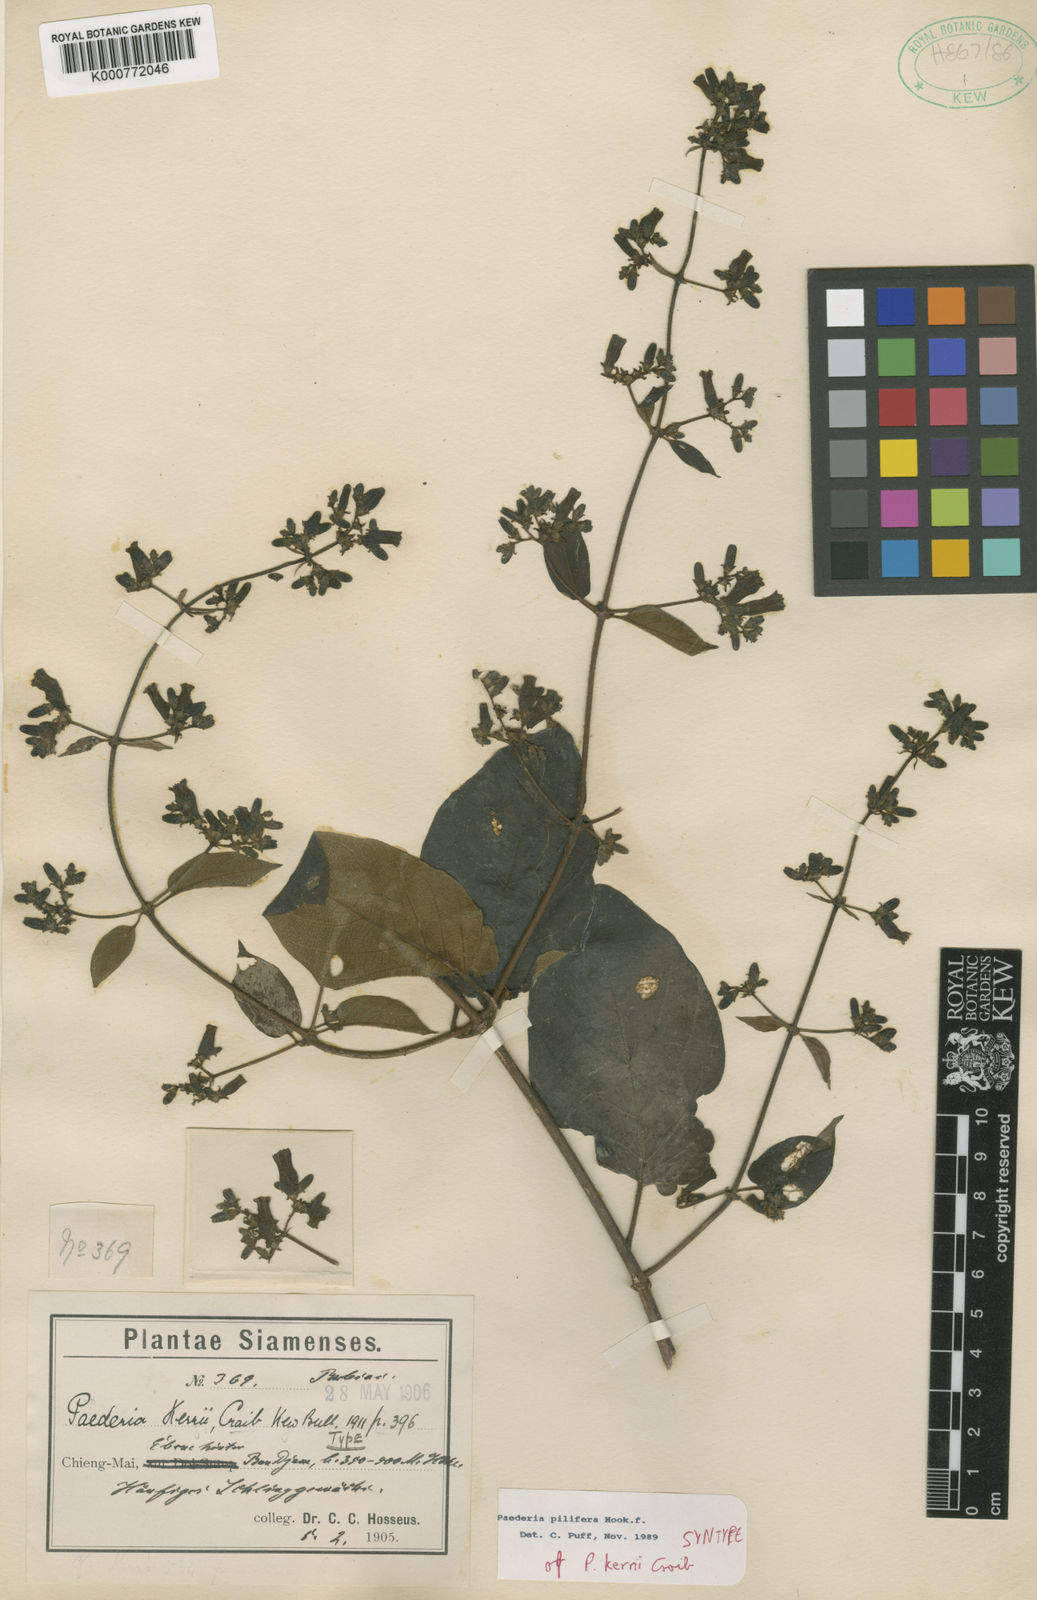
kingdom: Plantae
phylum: Tracheophyta
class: Magnoliopsida
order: Gentianales
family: Rubiaceae
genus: Paederia
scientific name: Paederia pilifera
